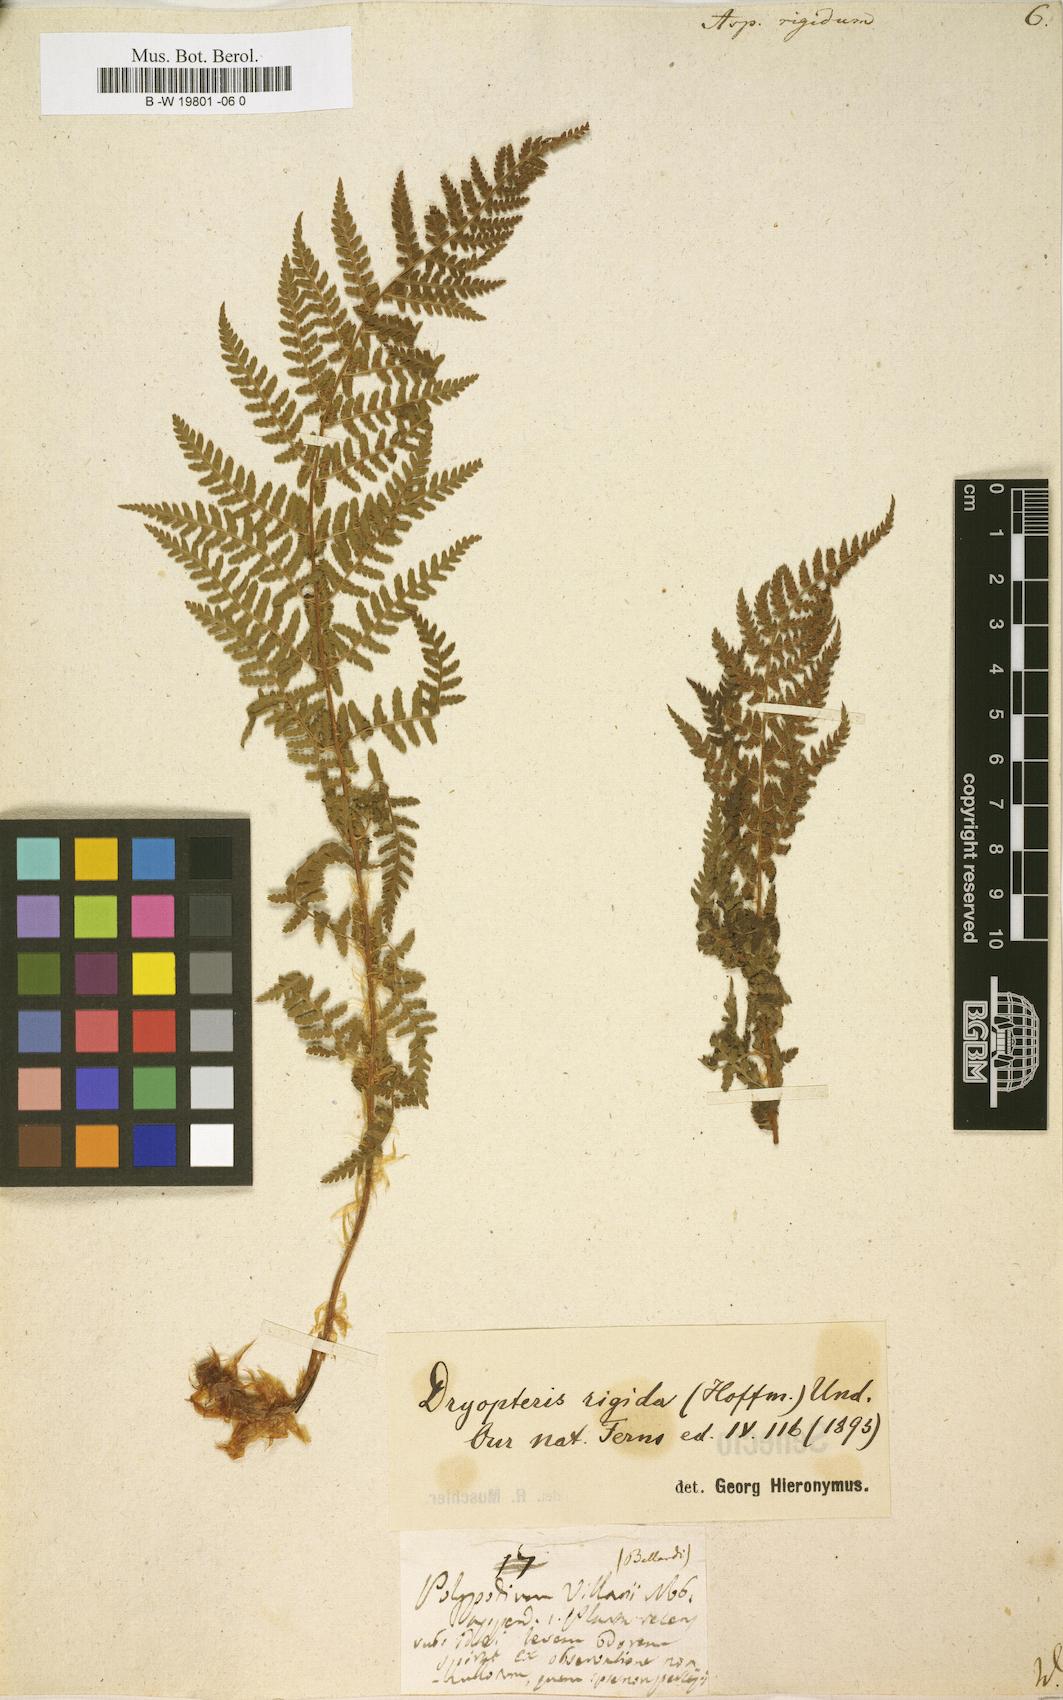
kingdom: Plantae
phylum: Tracheophyta
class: Polypodiopsida
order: Polypodiales
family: Dryopteridaceae
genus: Dryopteris
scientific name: Dryopteris villarii
